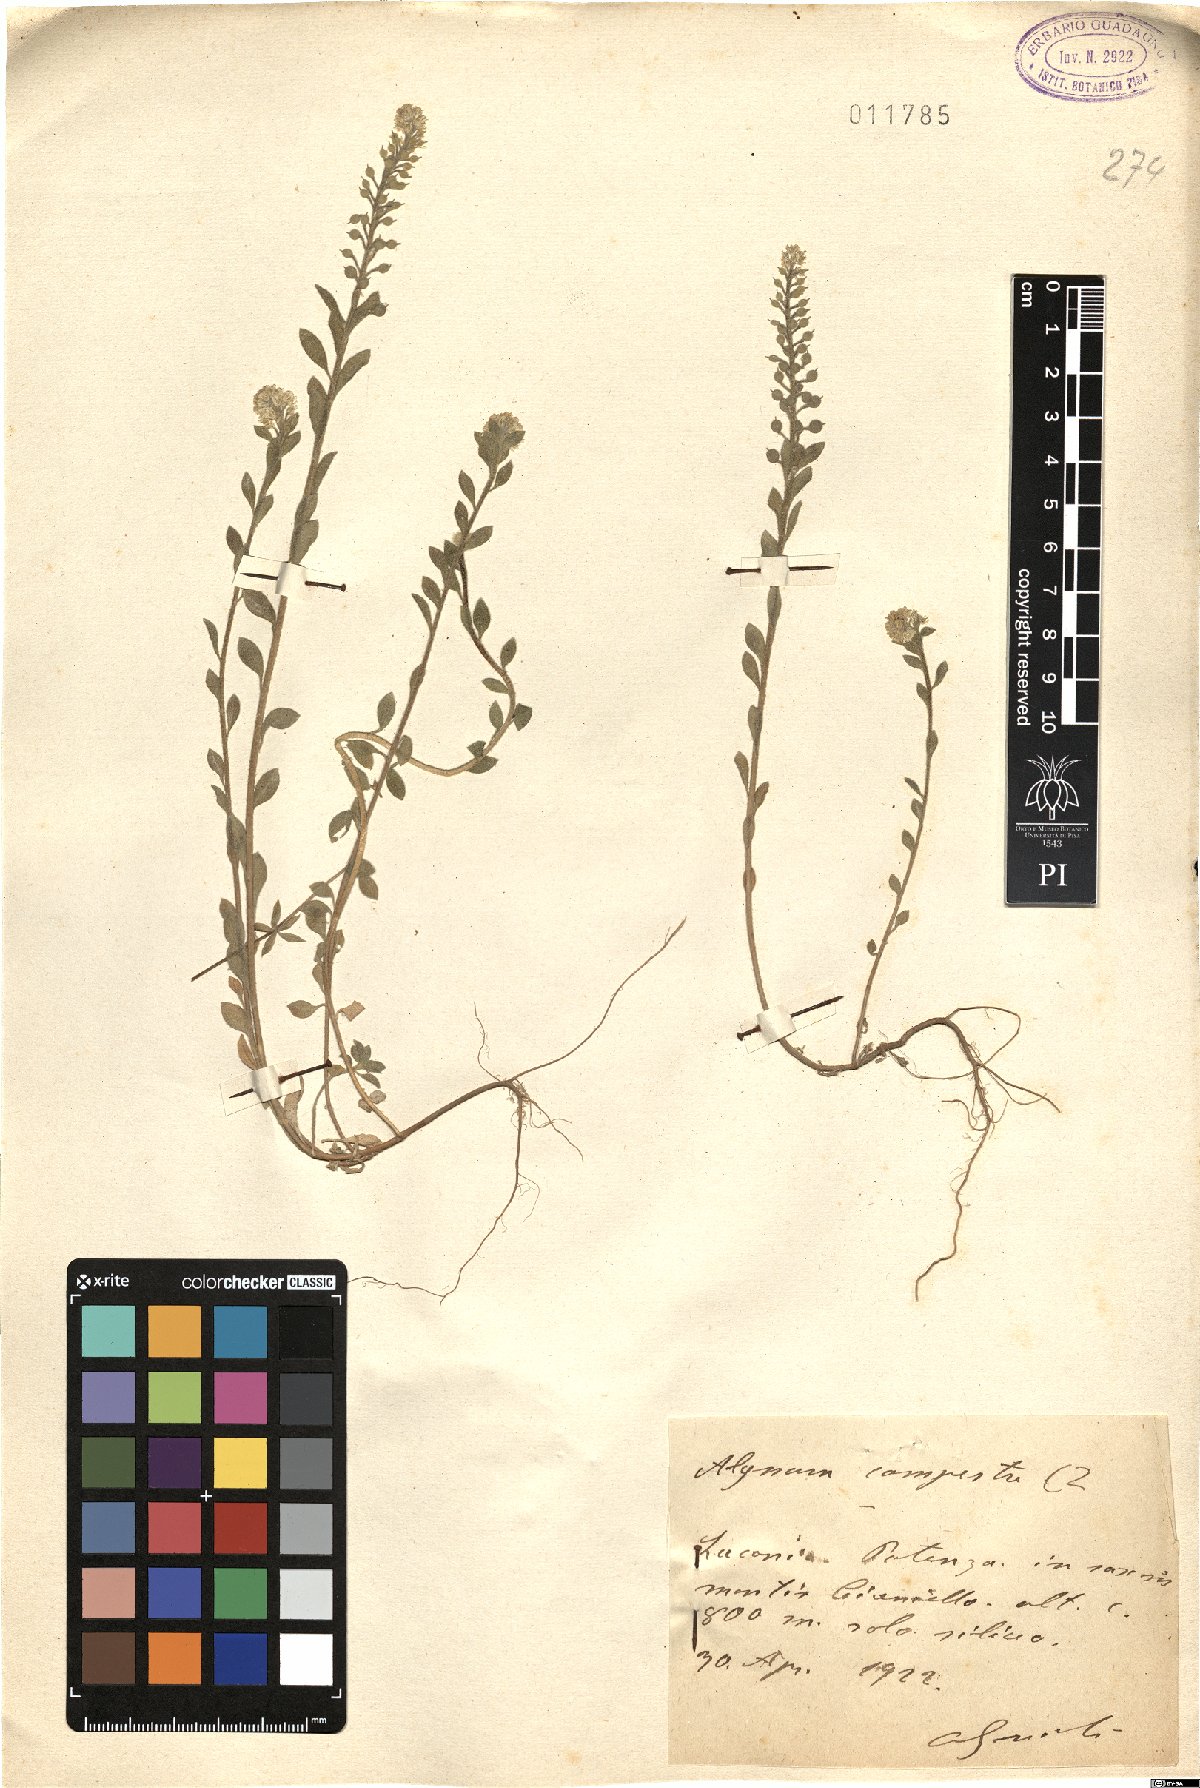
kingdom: Plantae
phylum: Tracheophyta
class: Magnoliopsida
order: Brassicales
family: Brassicaceae
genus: Alyssum
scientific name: Alyssum alyssoides
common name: Small alison
